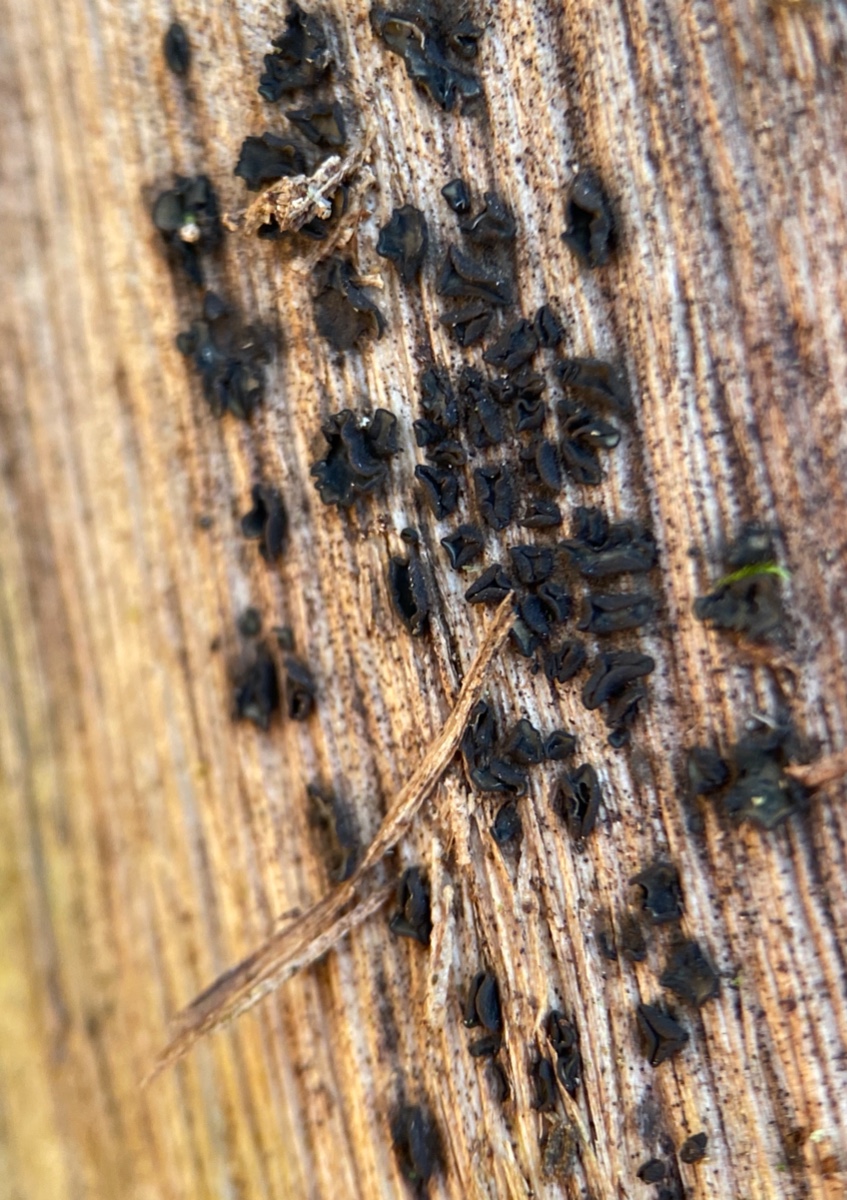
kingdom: Fungi
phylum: Ascomycota
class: Leotiomycetes
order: Helotiales
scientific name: Helotiales
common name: stilkskiveordenen
